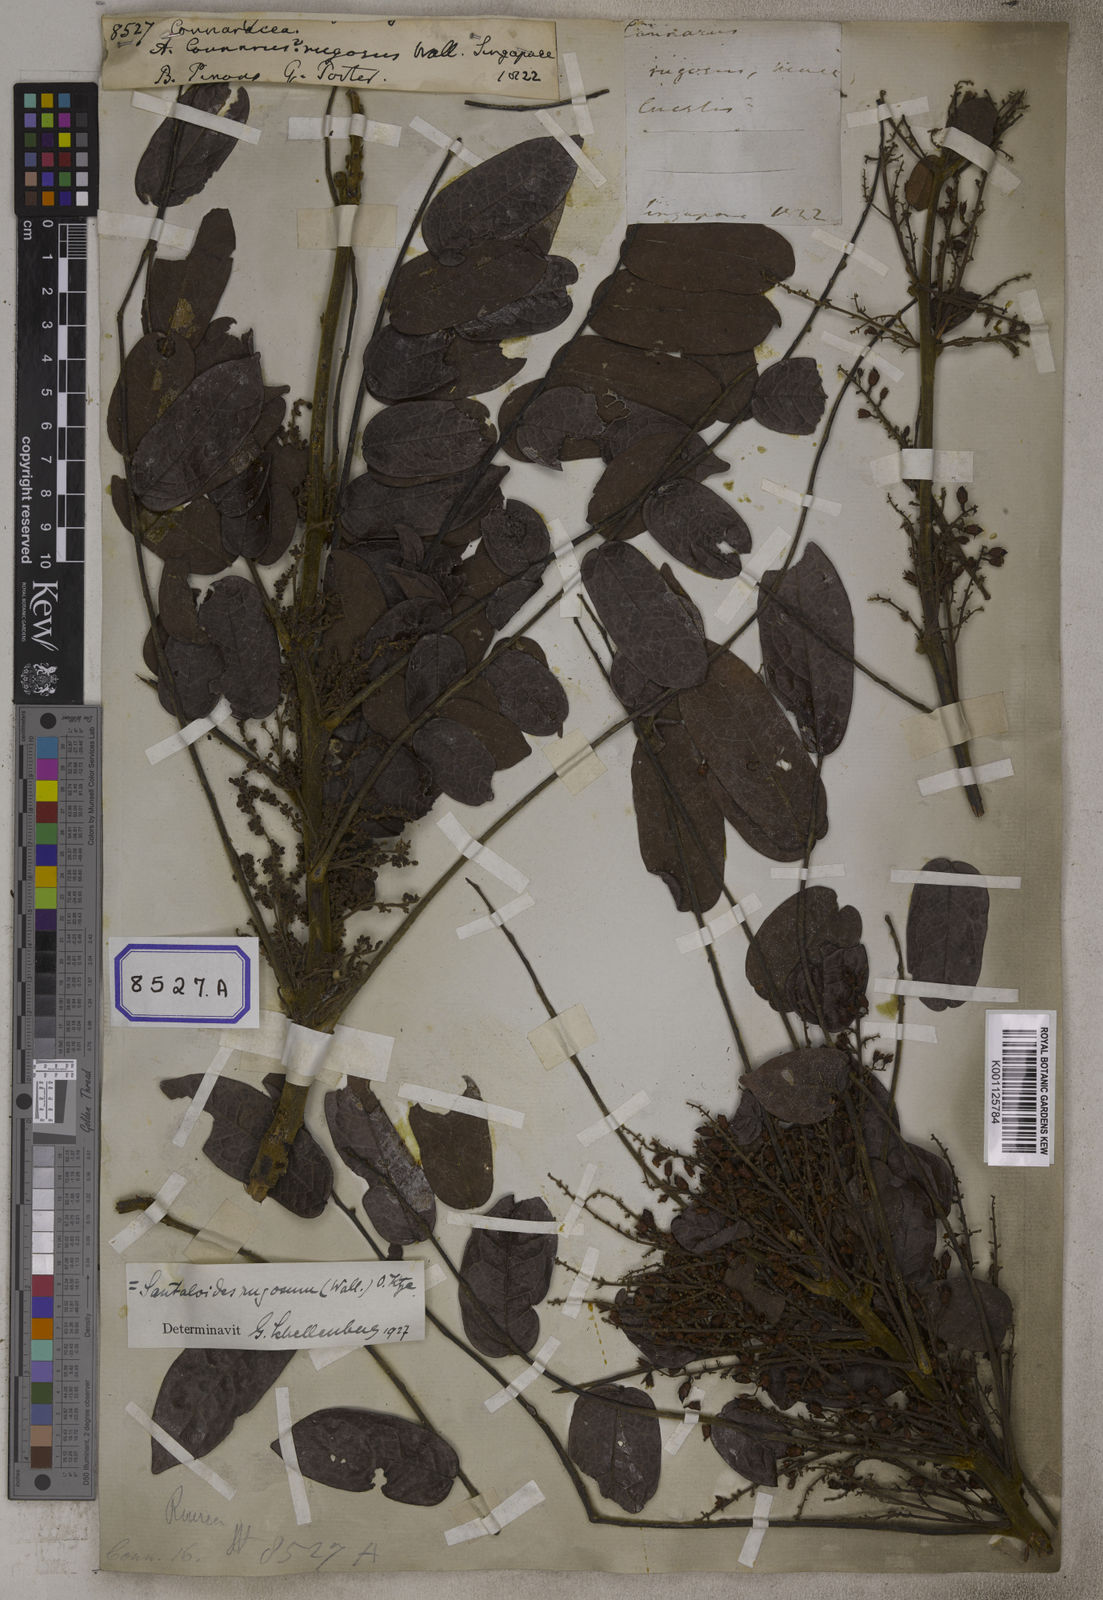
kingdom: Plantae
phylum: Tracheophyta
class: Magnoliopsida
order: Oxalidales
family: Connaraceae
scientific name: Connaraceae
